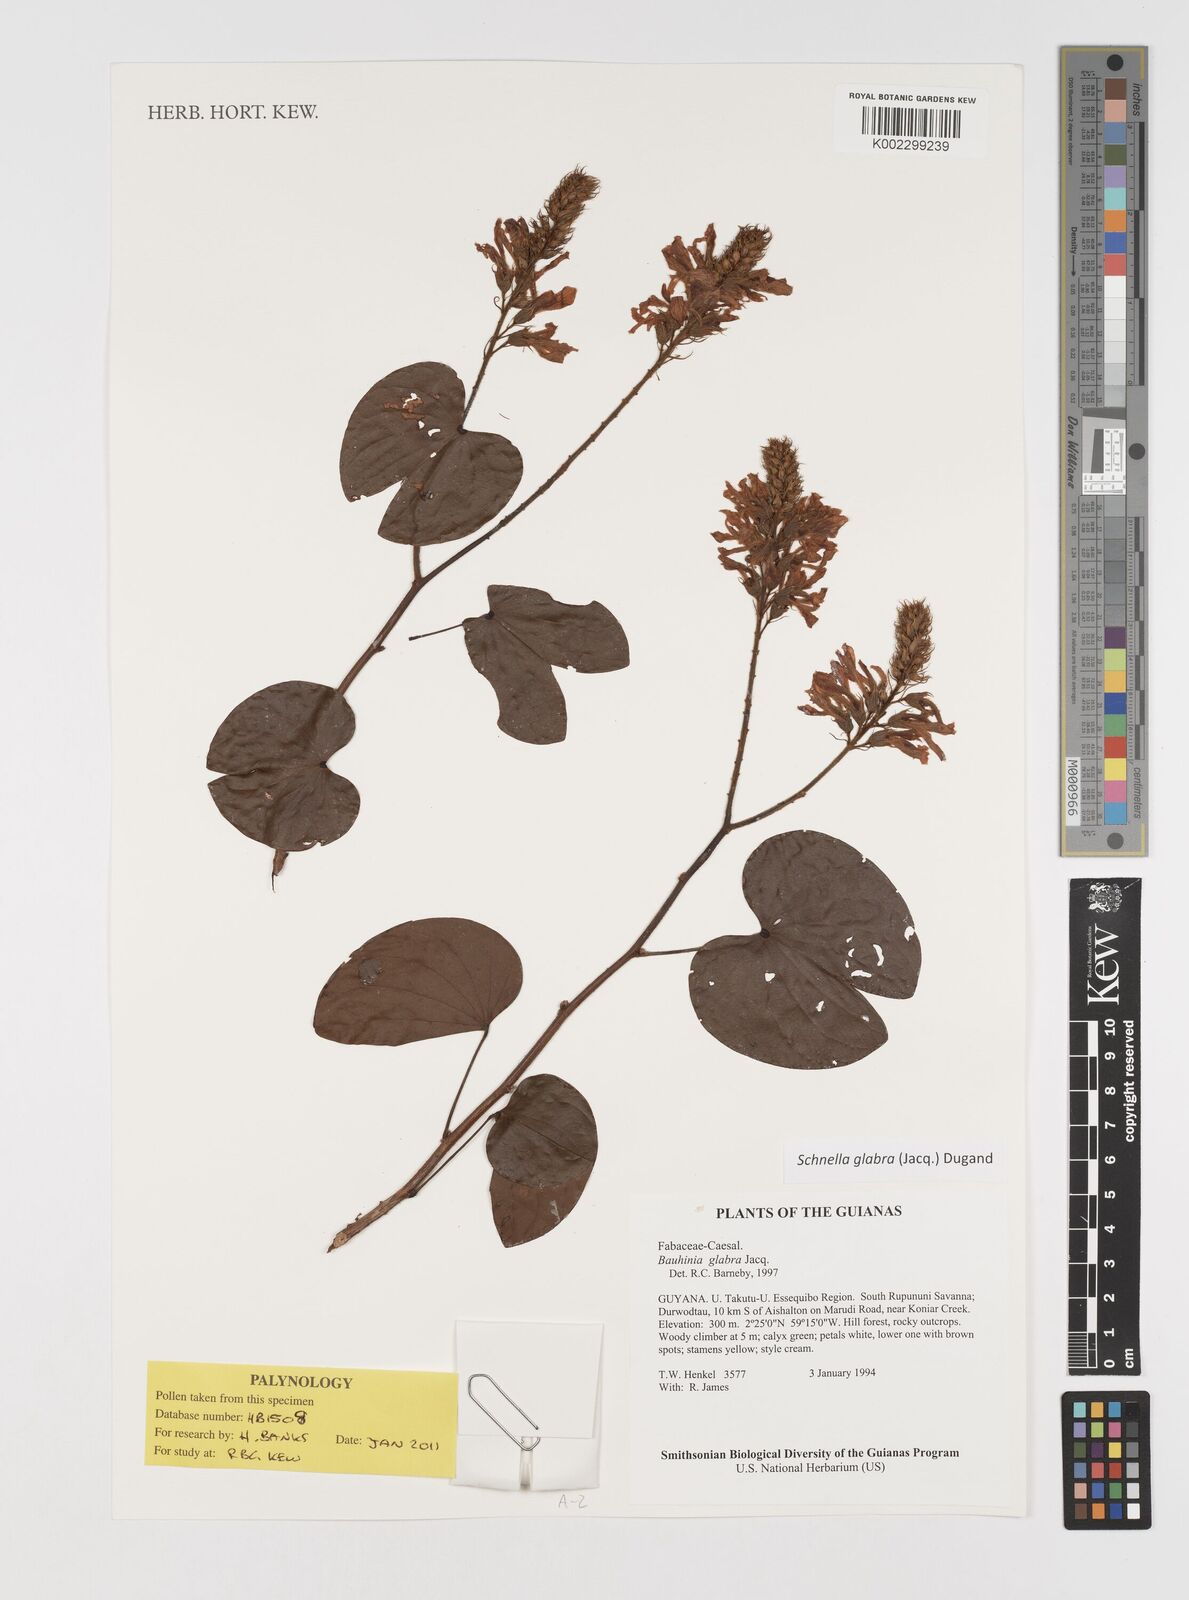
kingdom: Plantae
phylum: Tracheophyta
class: Magnoliopsida
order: Fabales
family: Fabaceae
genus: Schnella
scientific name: Schnella glabra
